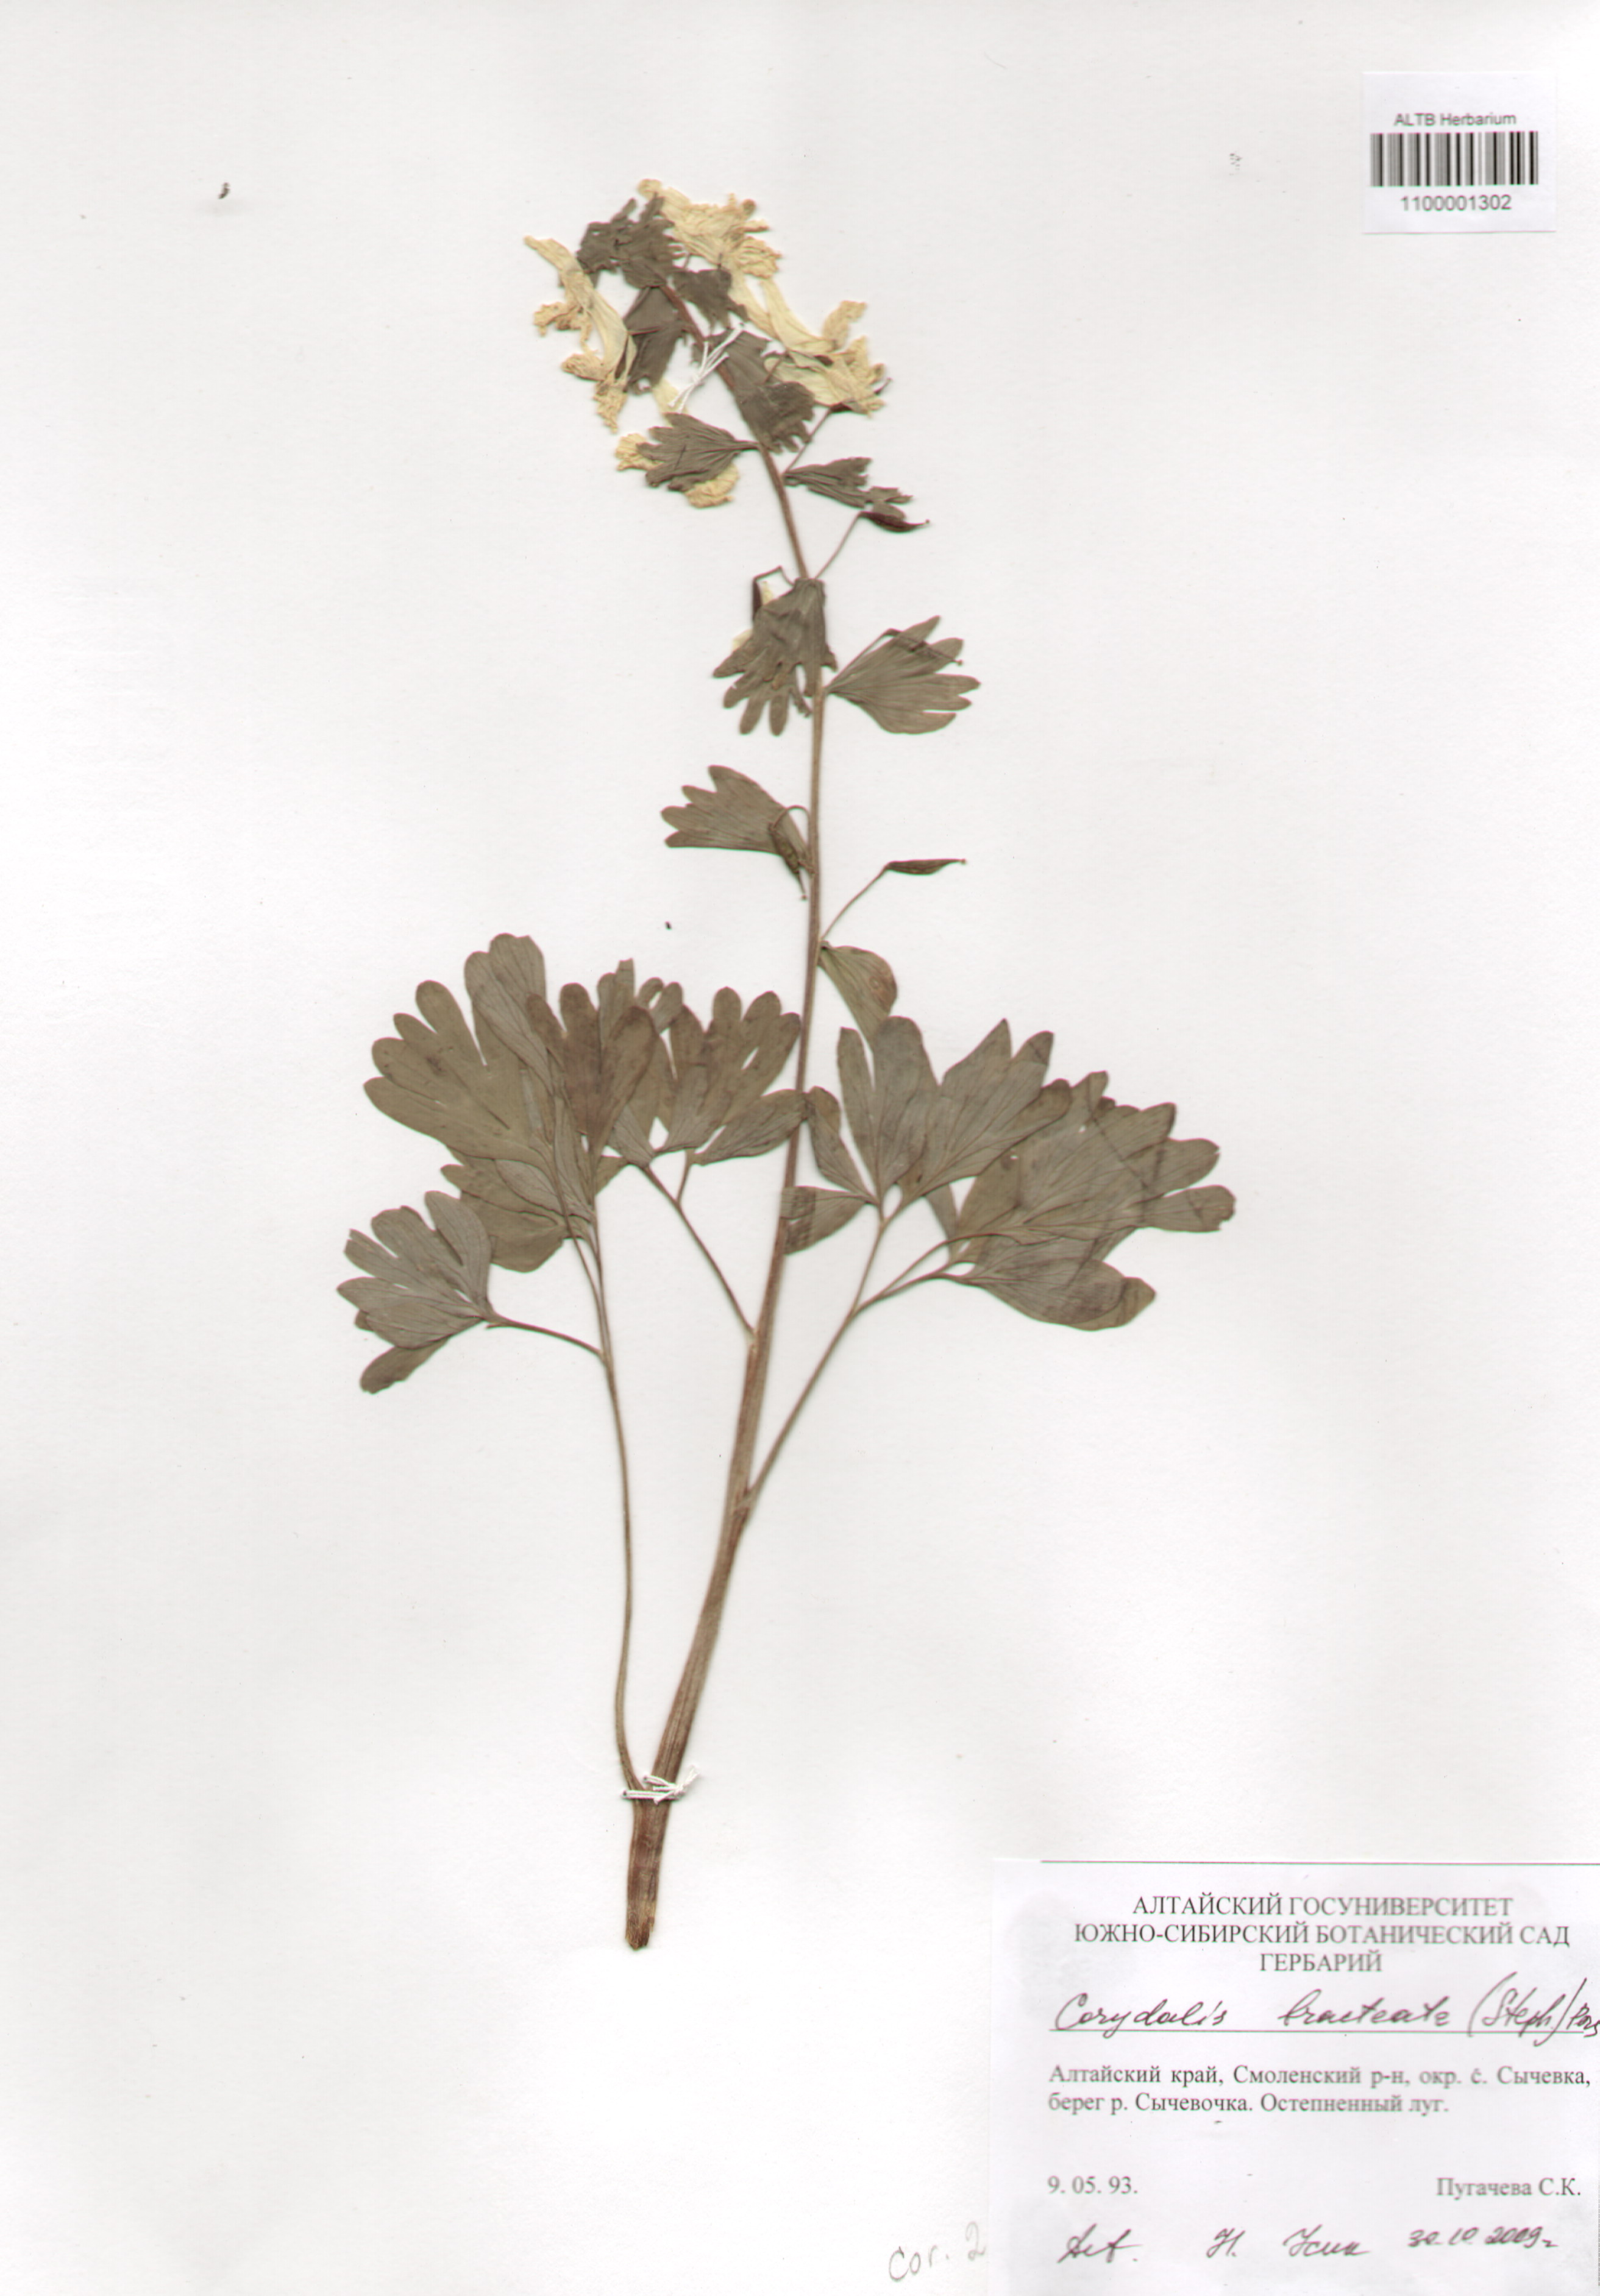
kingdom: Plantae
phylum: Tracheophyta
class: Magnoliopsida
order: Ranunculales
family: Papaveraceae
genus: Corydalis
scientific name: Corydalis bracteata
